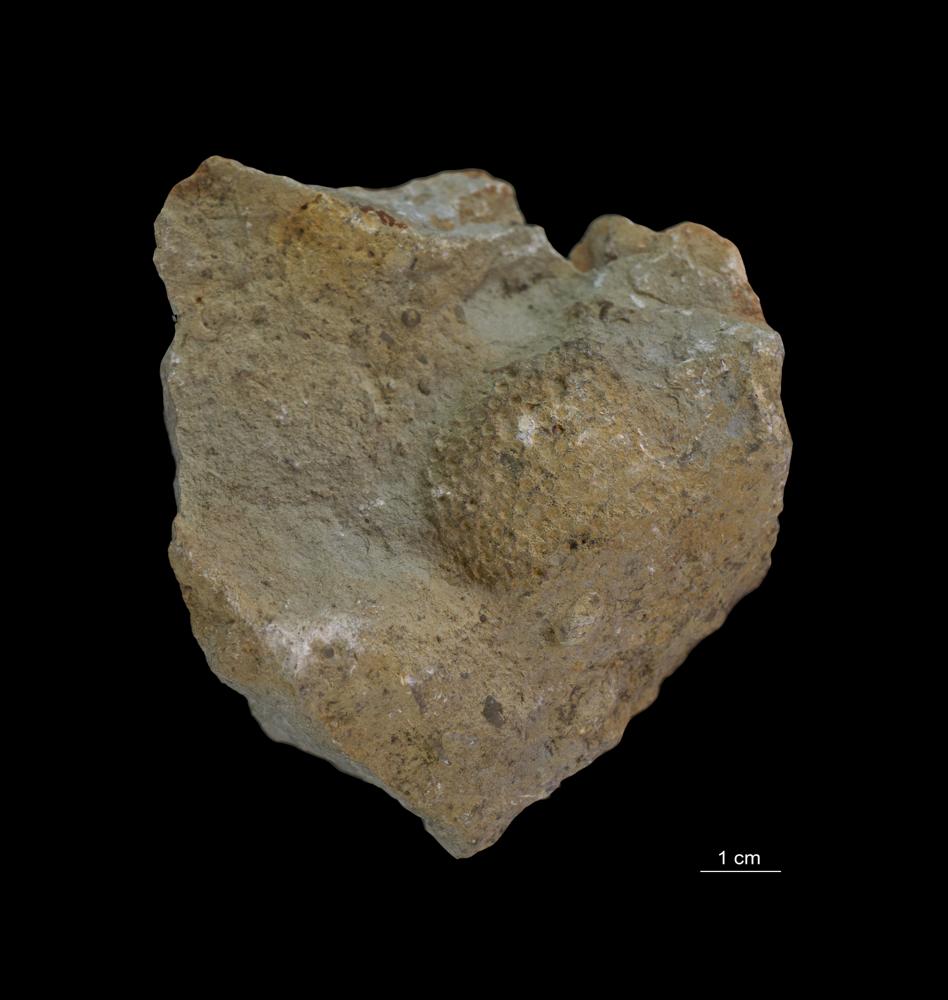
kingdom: Animalia
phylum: Cnidaria
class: Anthozoa
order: Heliolitina
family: Heliolitidae
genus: Heliolites
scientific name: Heliolites
